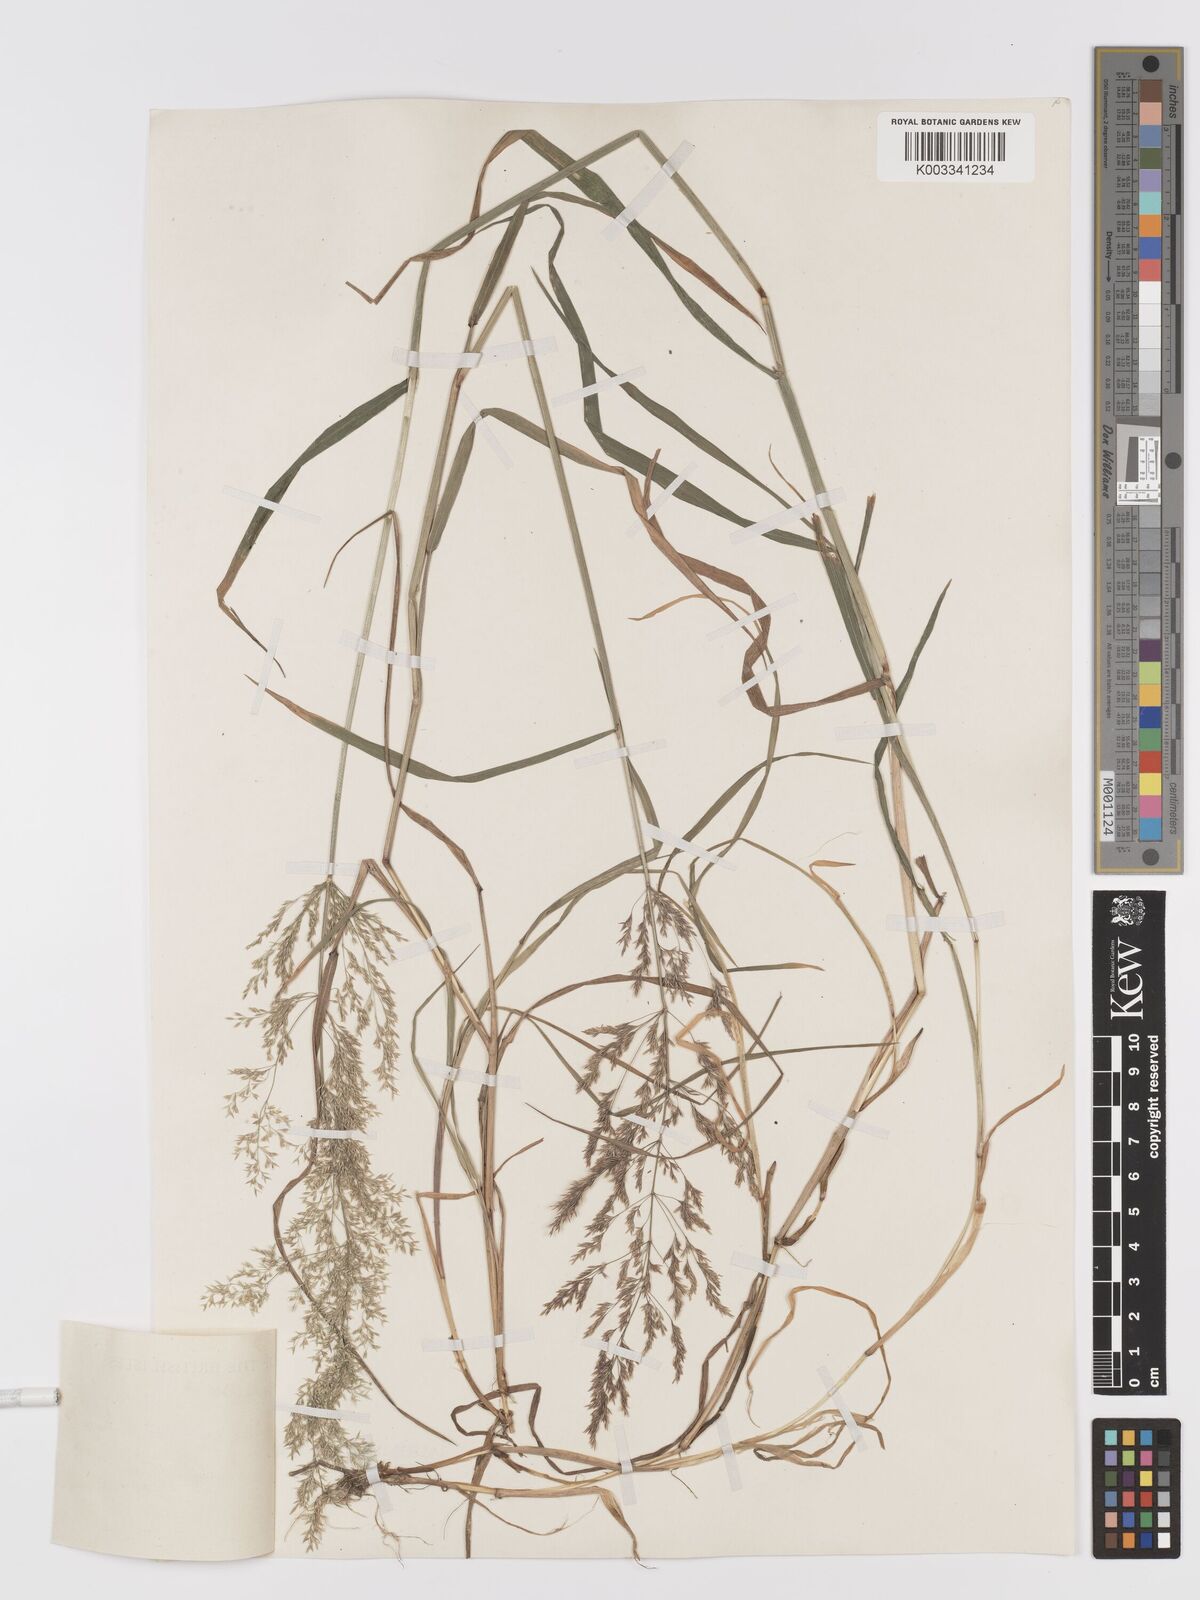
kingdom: Plantae
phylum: Tracheophyta
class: Liliopsida
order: Poales
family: Poaceae
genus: Agrostis
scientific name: Agrostis gigantea
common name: Black bent
